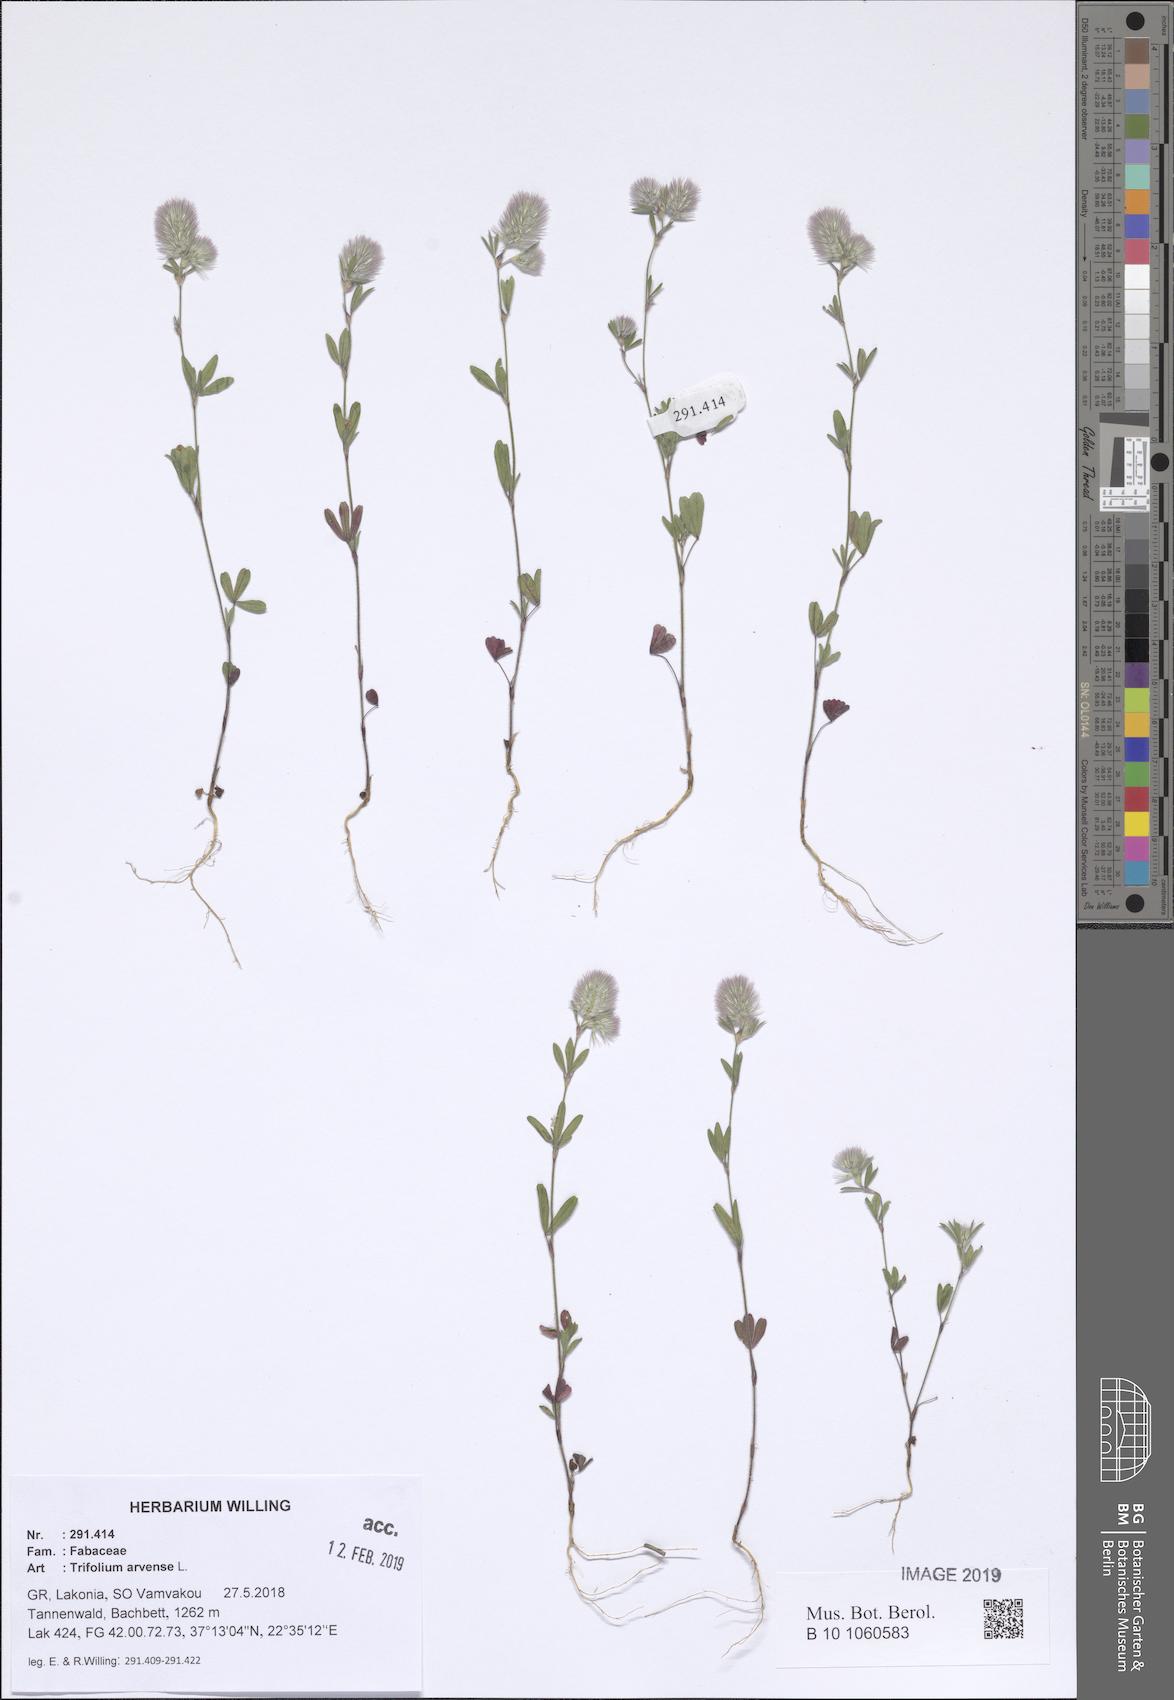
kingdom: Plantae
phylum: Tracheophyta
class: Magnoliopsida
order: Fabales
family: Fabaceae
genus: Trifolium
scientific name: Trifolium arvense
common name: Hare's-foot clover
